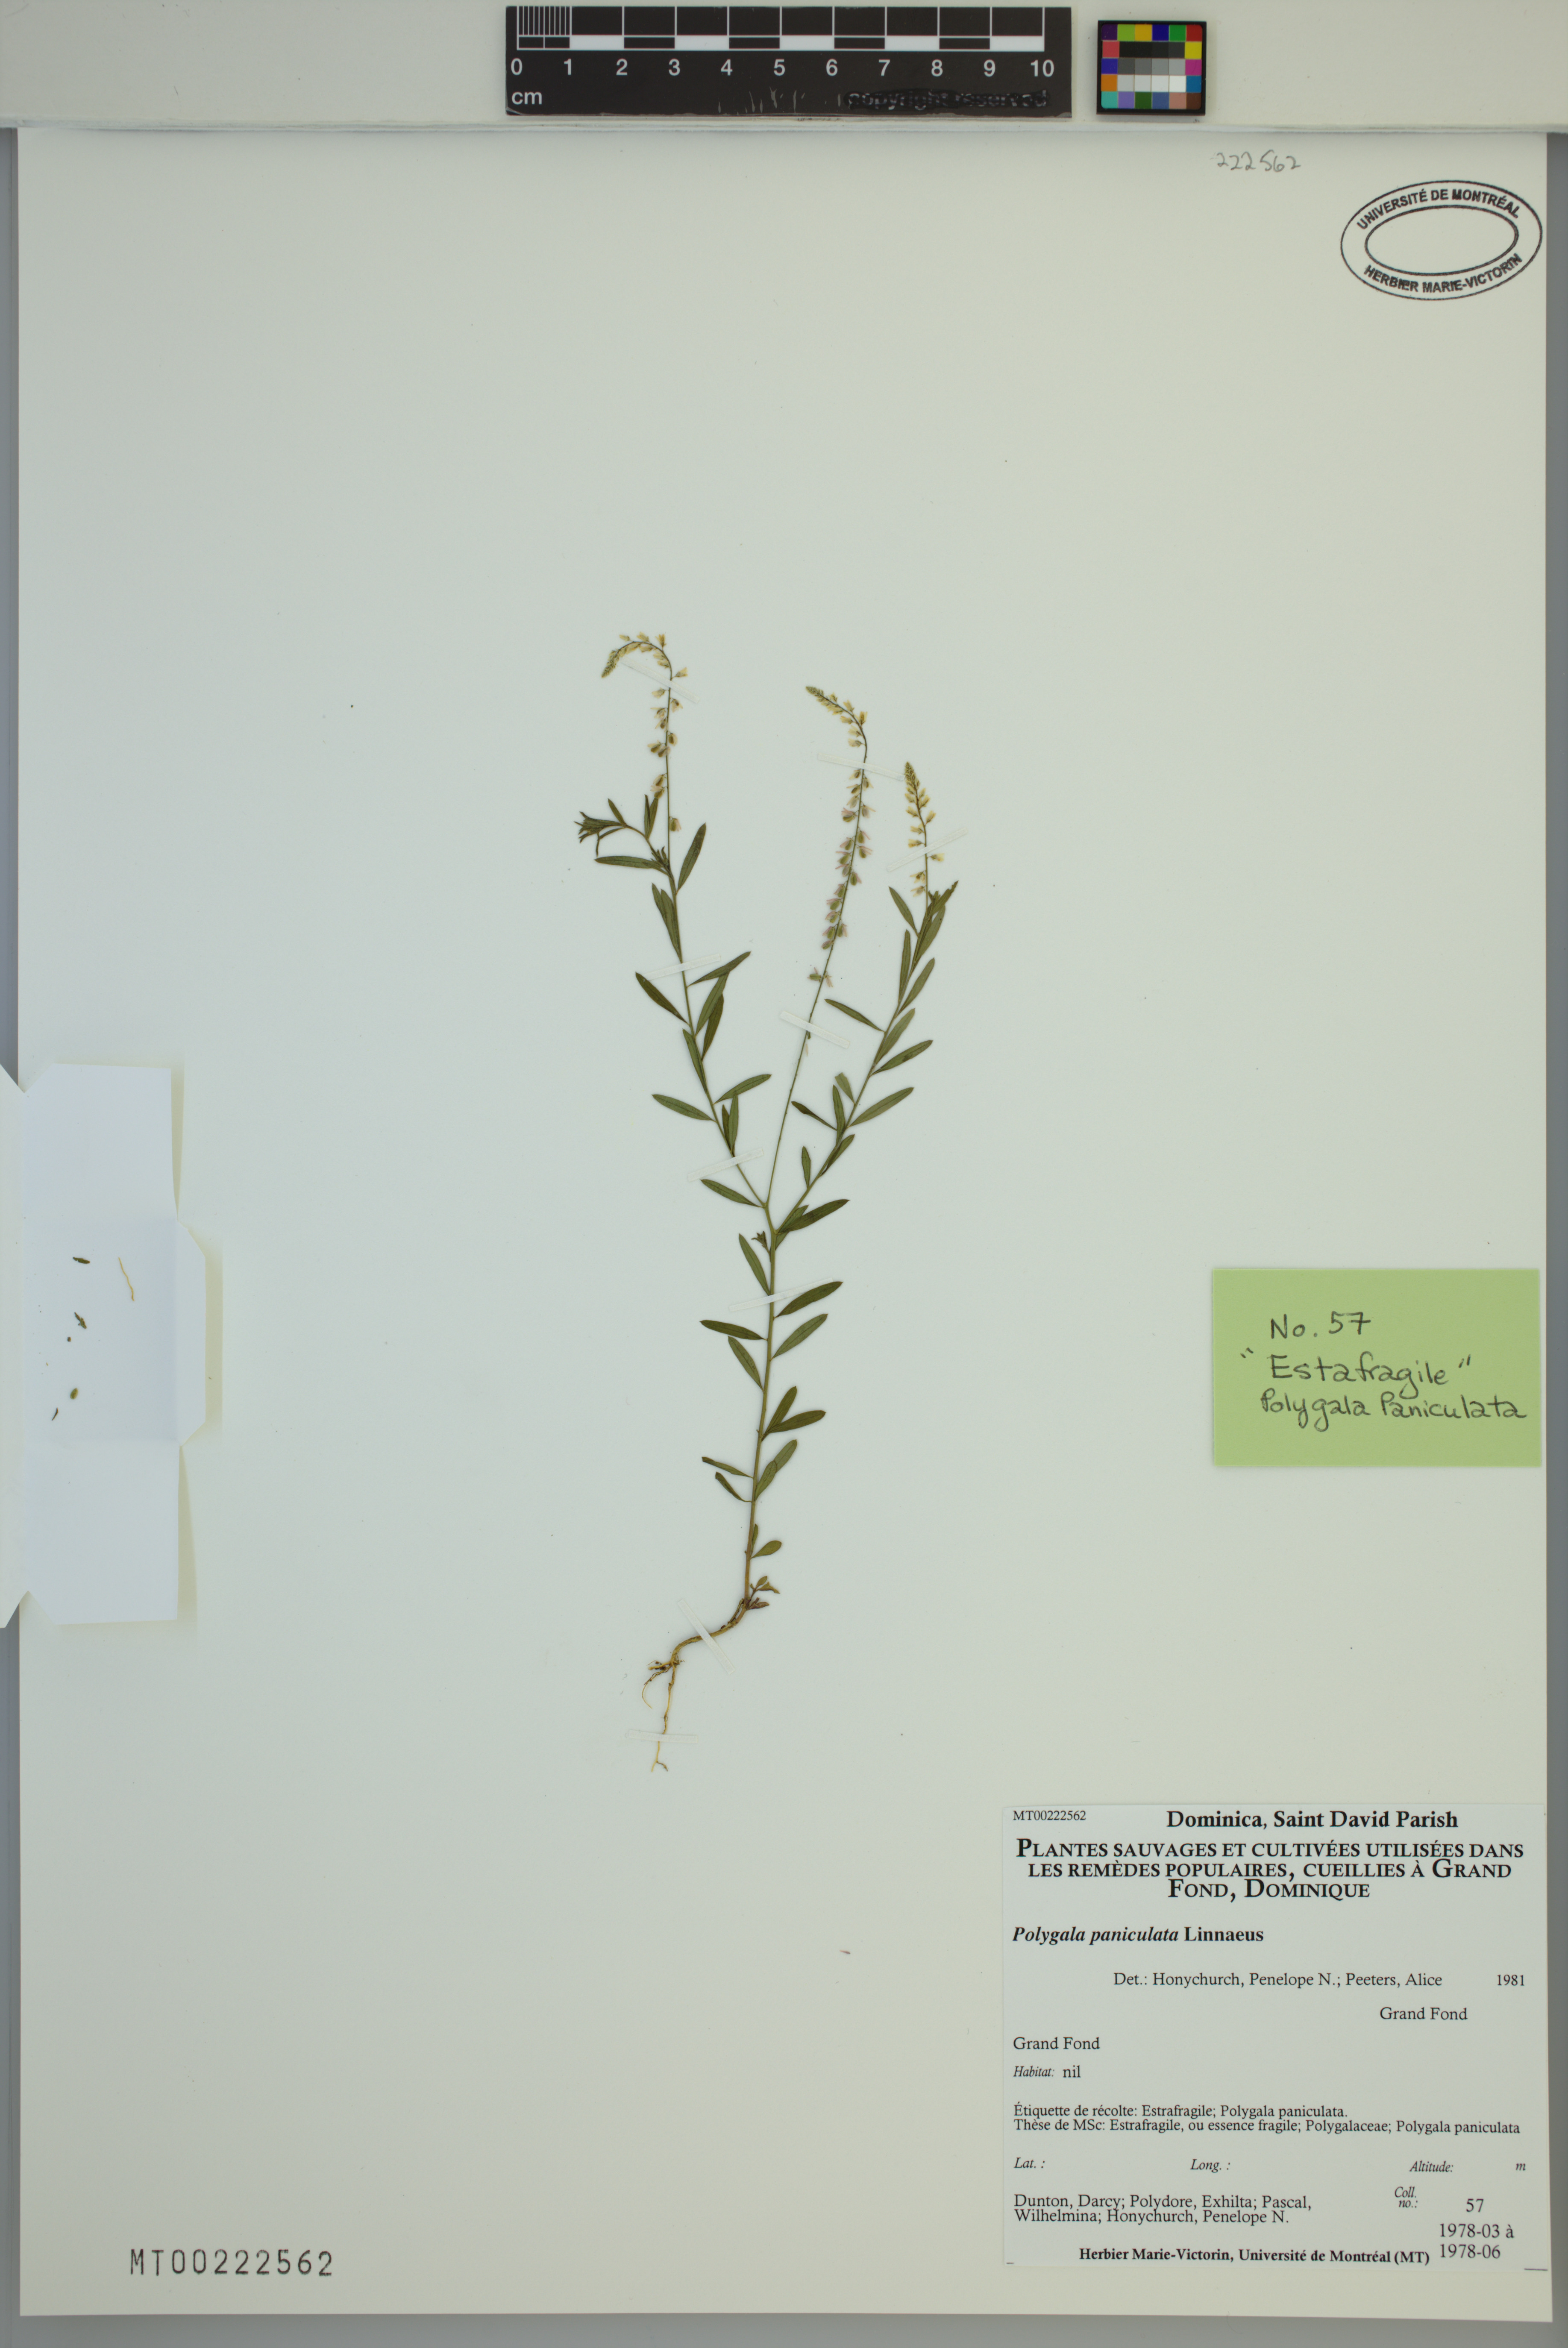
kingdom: Plantae
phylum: Tracheophyta
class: Magnoliopsida
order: Fabales
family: Polygalaceae
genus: Polygala
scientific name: Polygala paniculata
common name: Orosne
